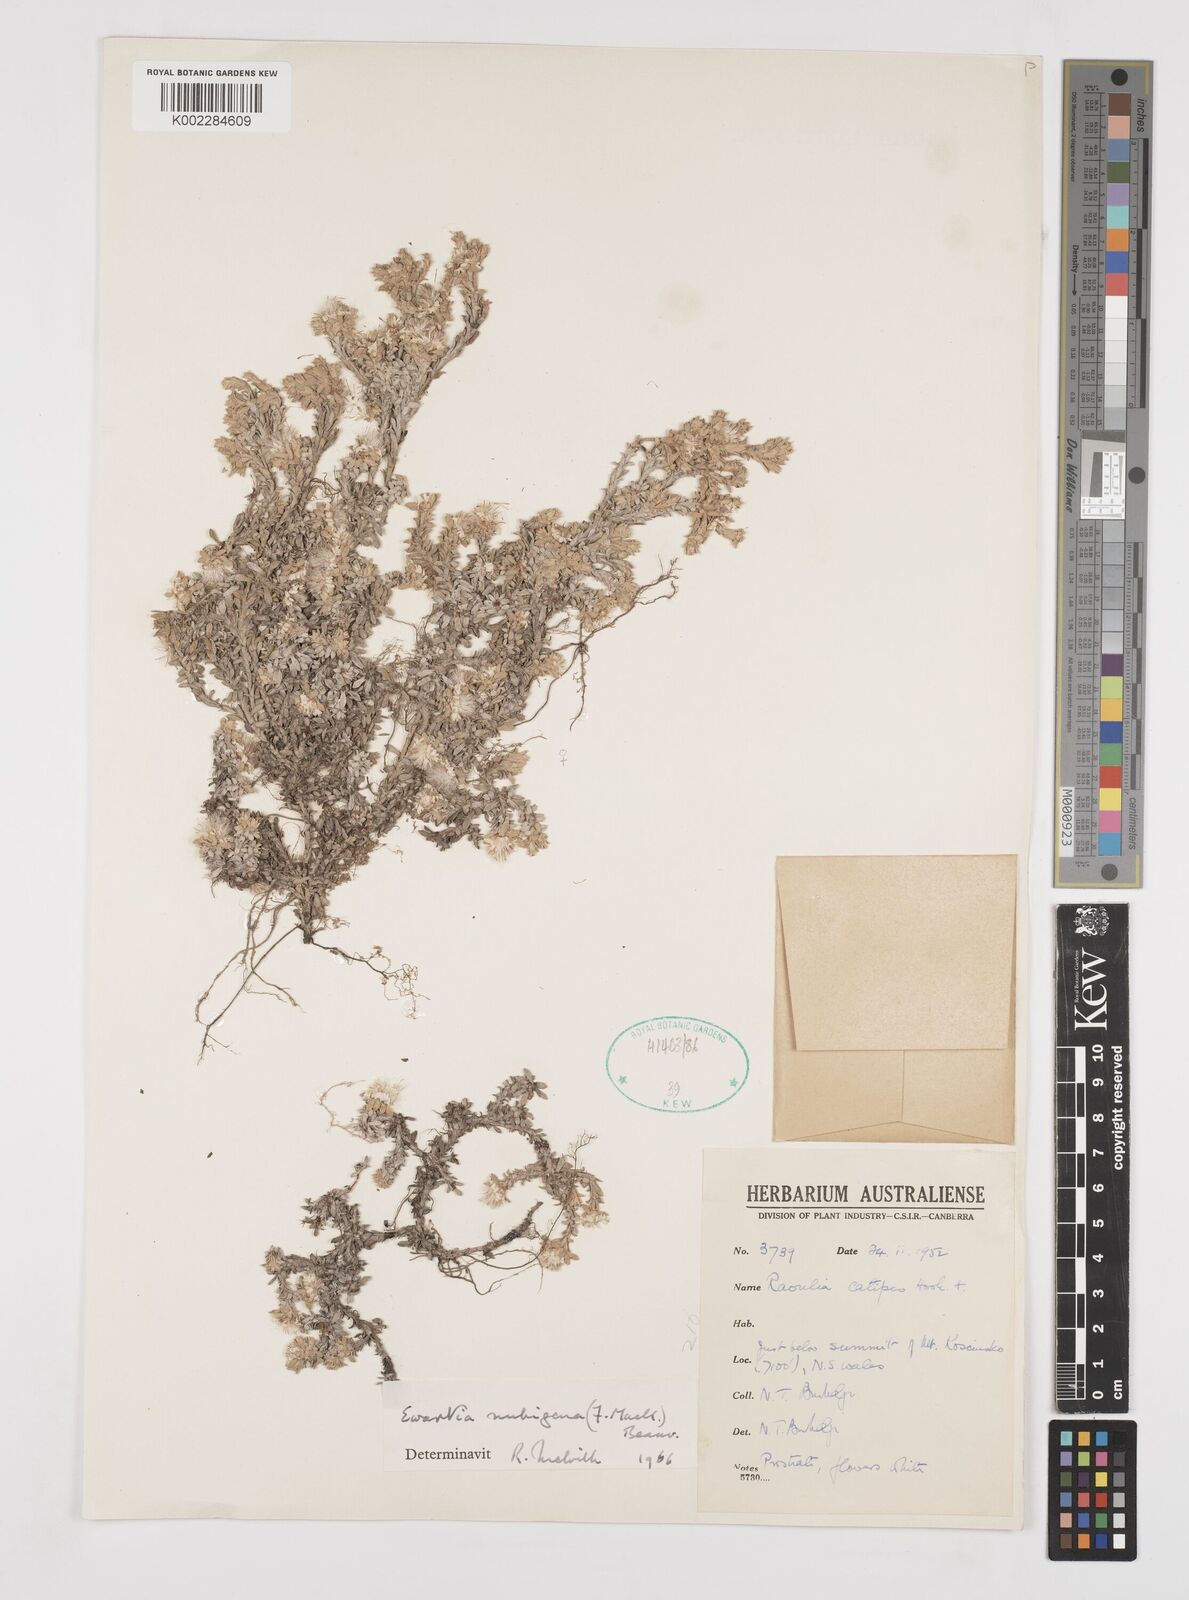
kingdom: Plantae
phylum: Tracheophyta
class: Magnoliopsida
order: Asterales
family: Asteraceae
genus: Ewartia
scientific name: Ewartia nubigena
